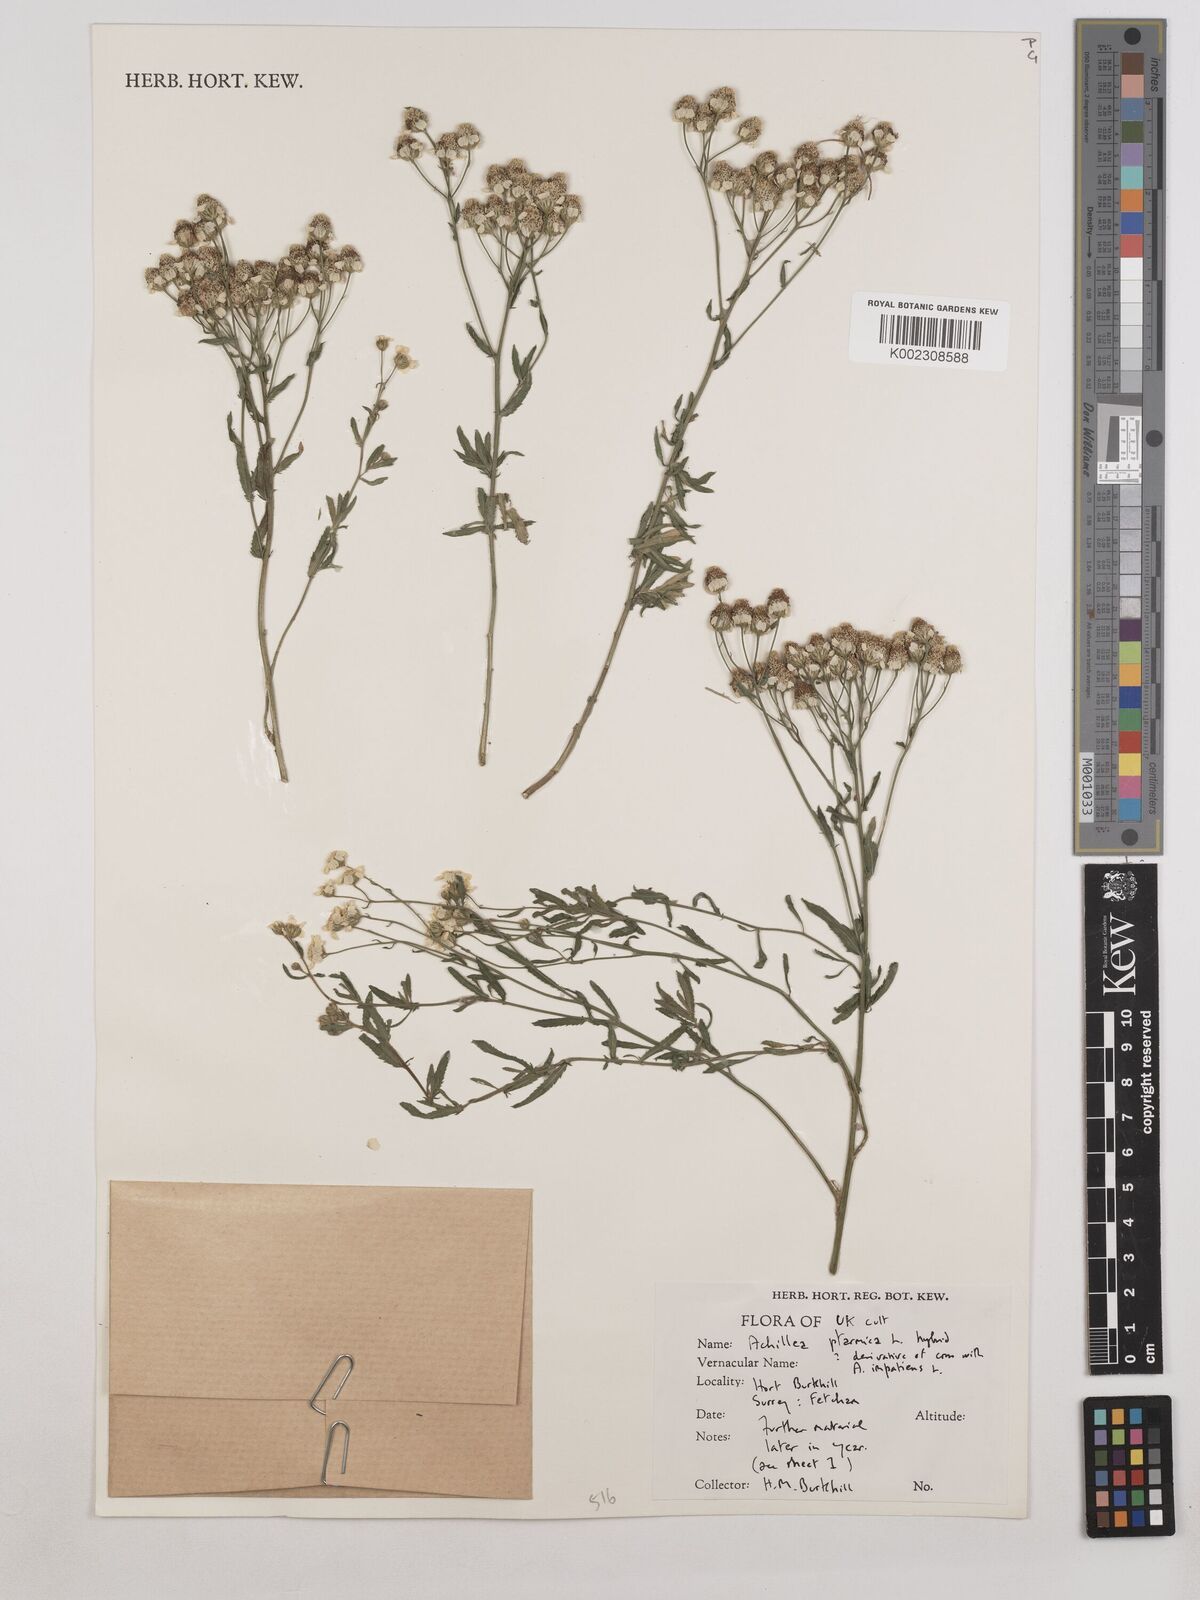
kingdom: Plantae
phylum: Tracheophyta
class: Magnoliopsida
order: Asterales
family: Asteraceae
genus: Achillea
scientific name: Achillea ptarmica
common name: Sneezeweed
